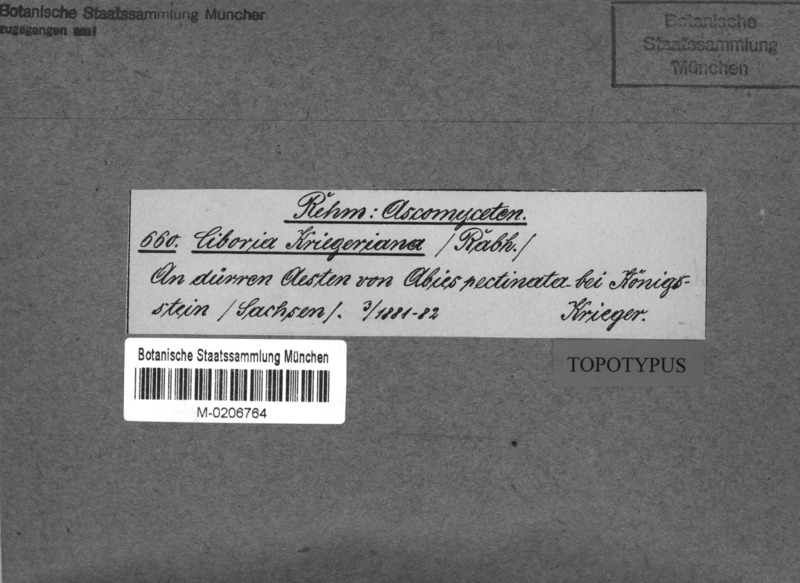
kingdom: Fungi
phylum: Ascomycota
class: Leotiomycetes
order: Helotiales
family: Rutstroemiaceae
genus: Rutstroemia
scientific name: Rutstroemia elatina
